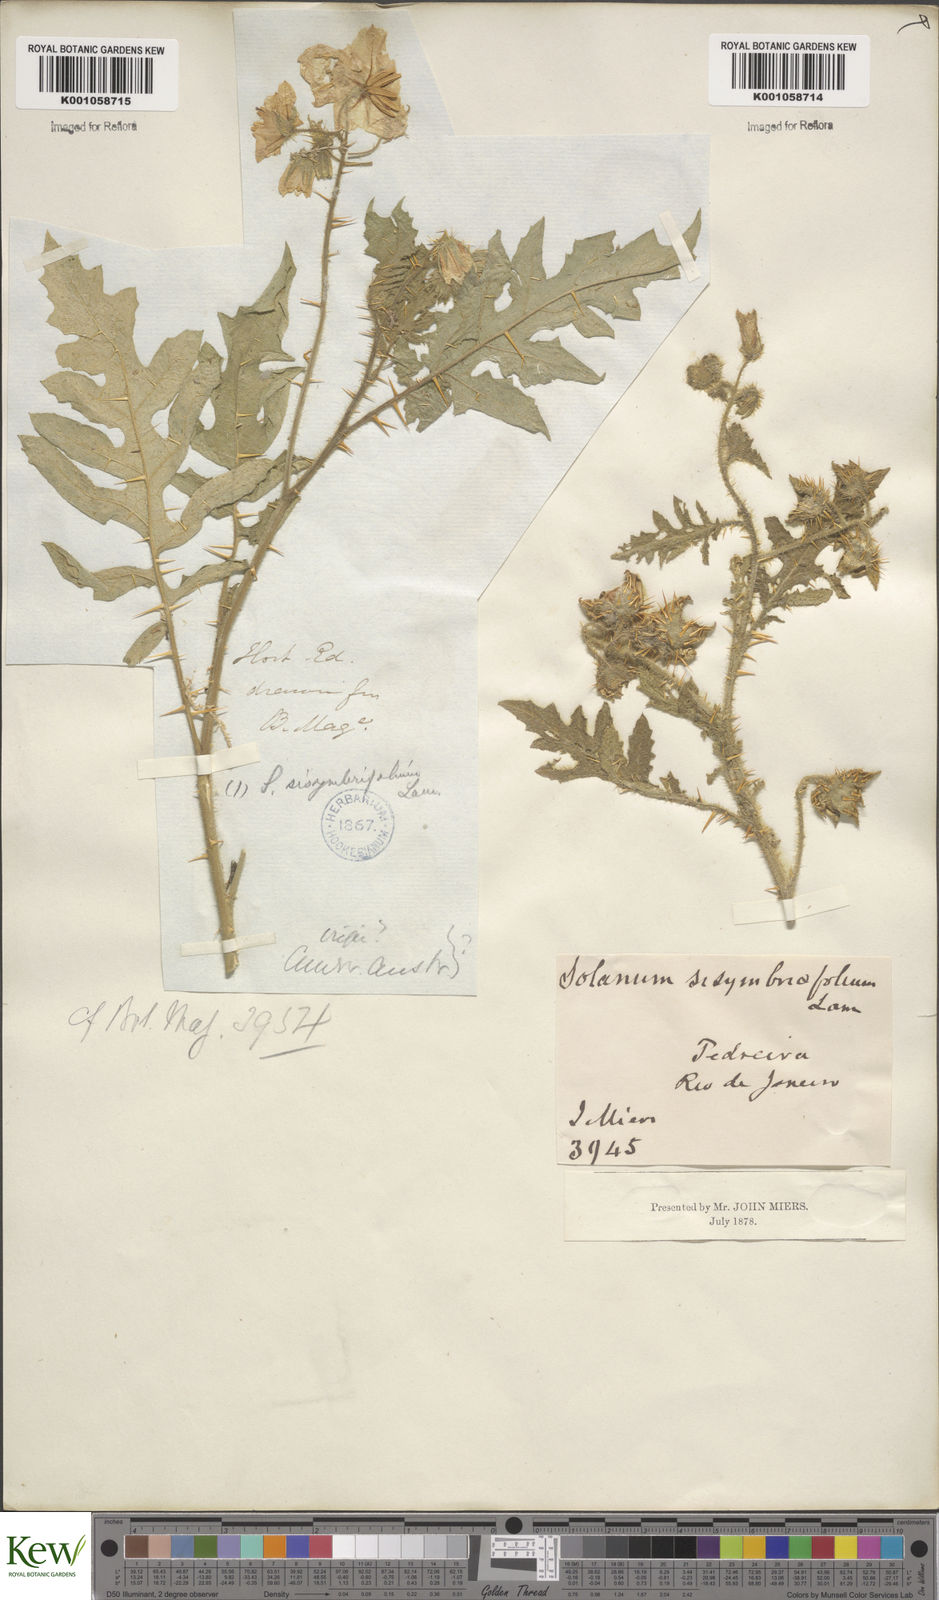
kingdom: Plantae
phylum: Tracheophyta
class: Magnoliopsida
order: Solanales
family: Solanaceae
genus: Solanum
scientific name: Solanum sisymbriifolium
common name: Red buffalo-bur
